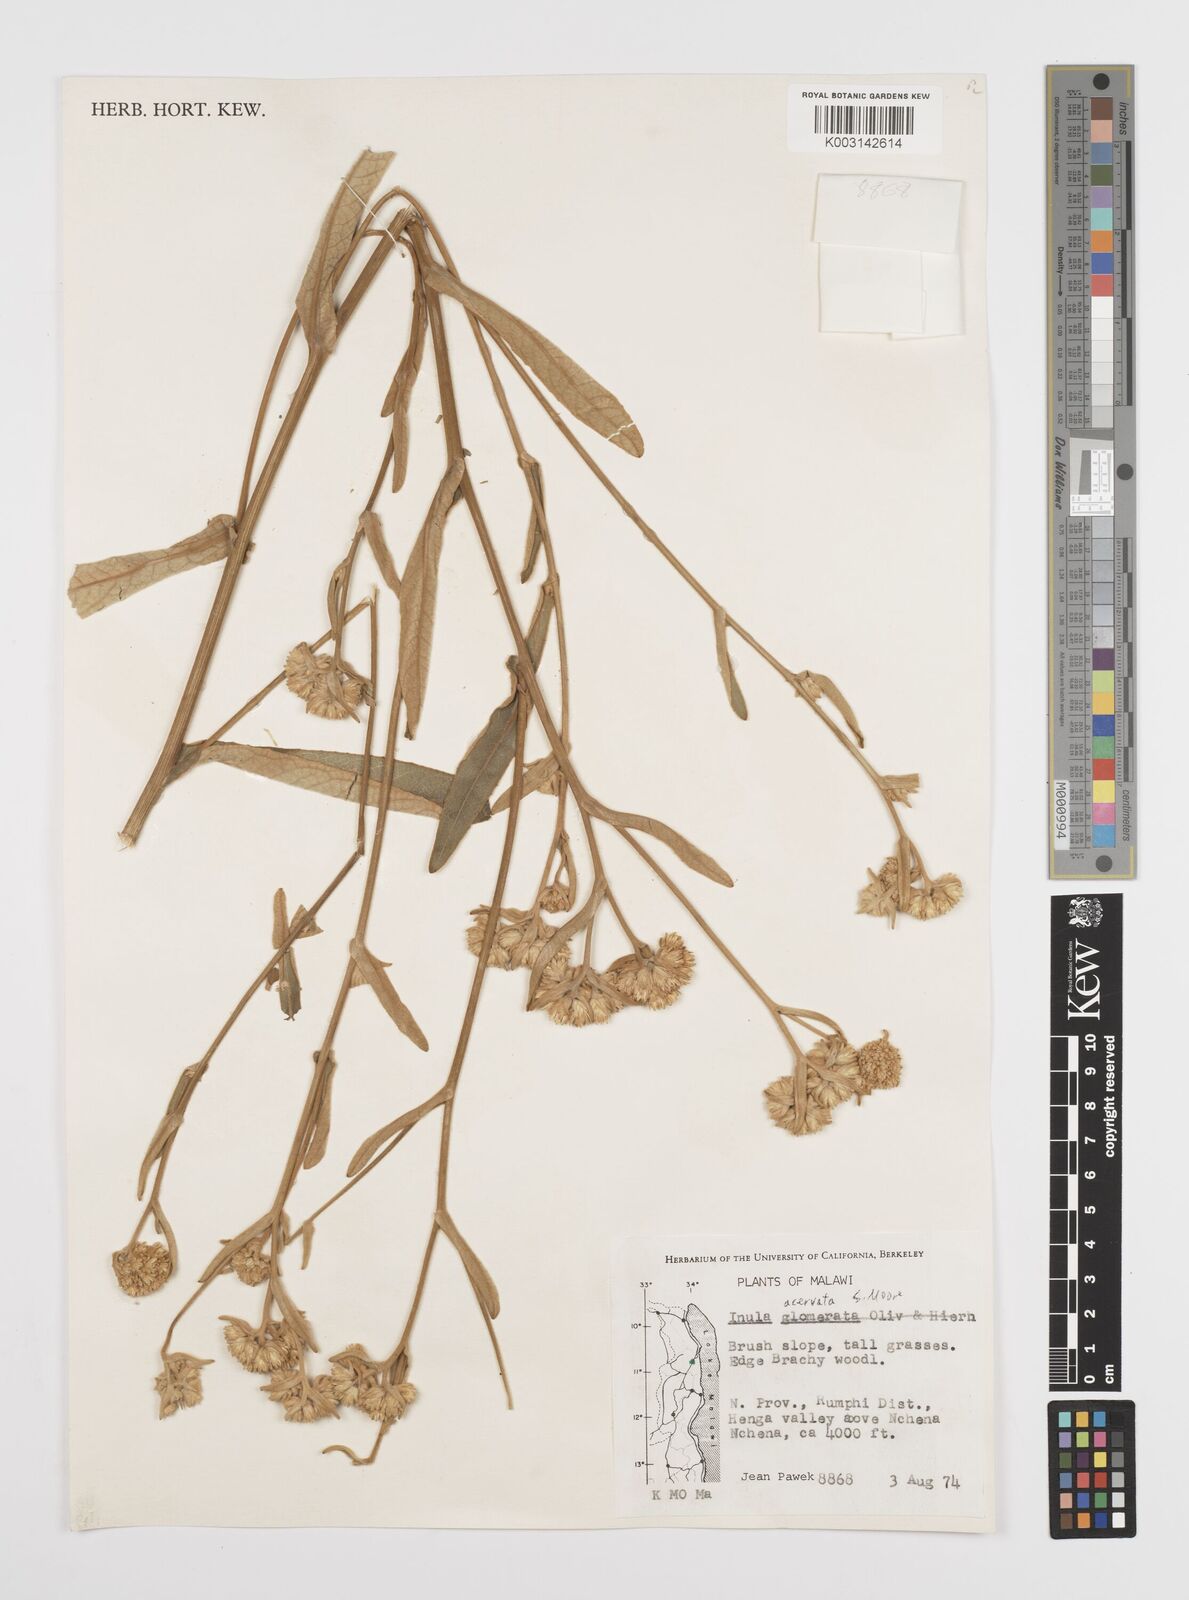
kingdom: Plantae
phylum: Tracheophyta
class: Magnoliopsida
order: Asterales
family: Asteraceae
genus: Inula
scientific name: Inula glomerata
